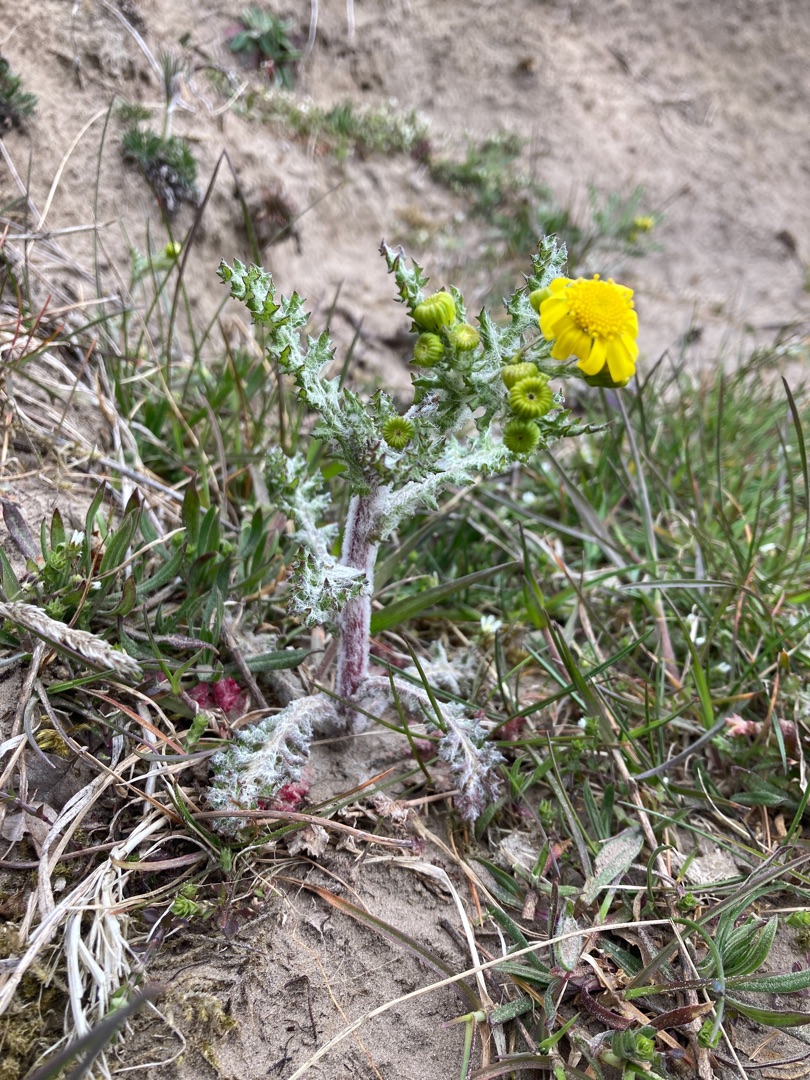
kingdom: Plantae
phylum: Tracheophyta
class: Magnoliopsida
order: Asterales
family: Asteraceae
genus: Senecio
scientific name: Senecio leucanthemifolius
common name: Vår-brandbæger
